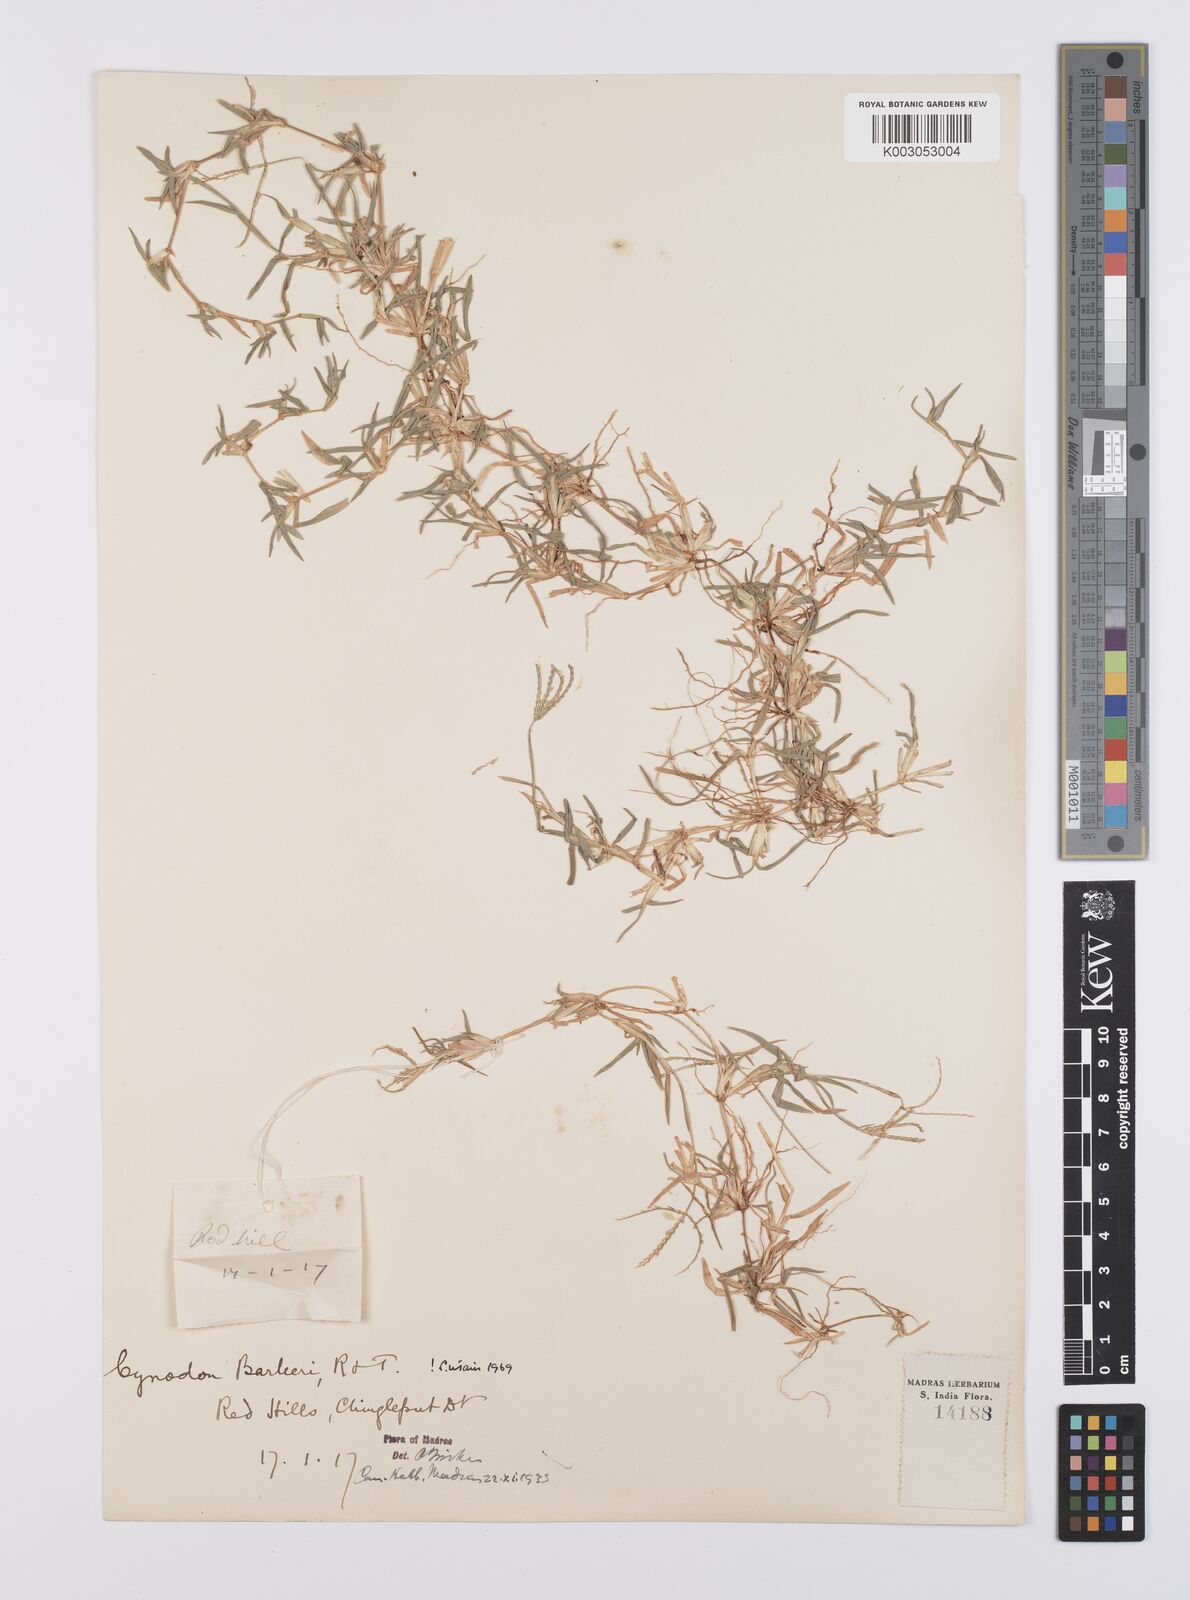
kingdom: Plantae
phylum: Tracheophyta
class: Liliopsida
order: Poales
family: Poaceae
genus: Cynodon
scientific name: Cynodon barberi
